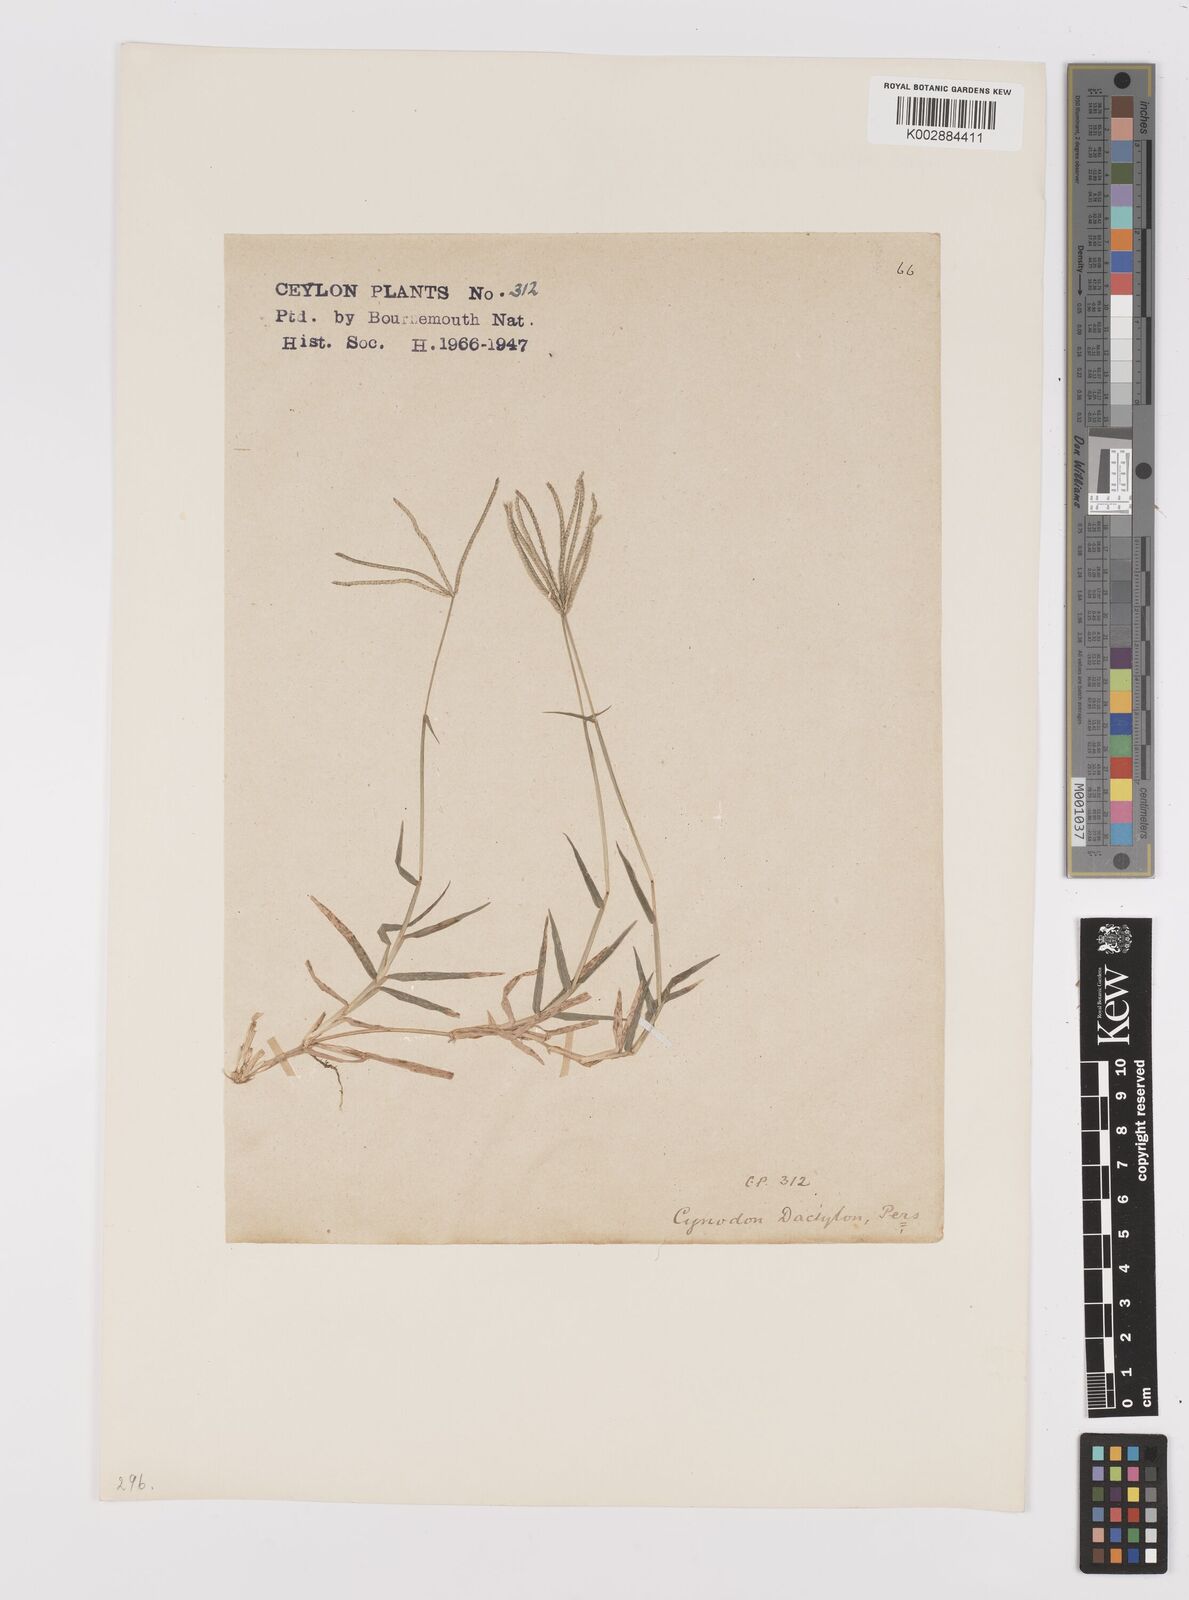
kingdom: Plantae
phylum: Tracheophyta
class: Liliopsida
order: Poales
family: Poaceae
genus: Cynodon
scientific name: Cynodon dactylon
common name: Bermuda grass
